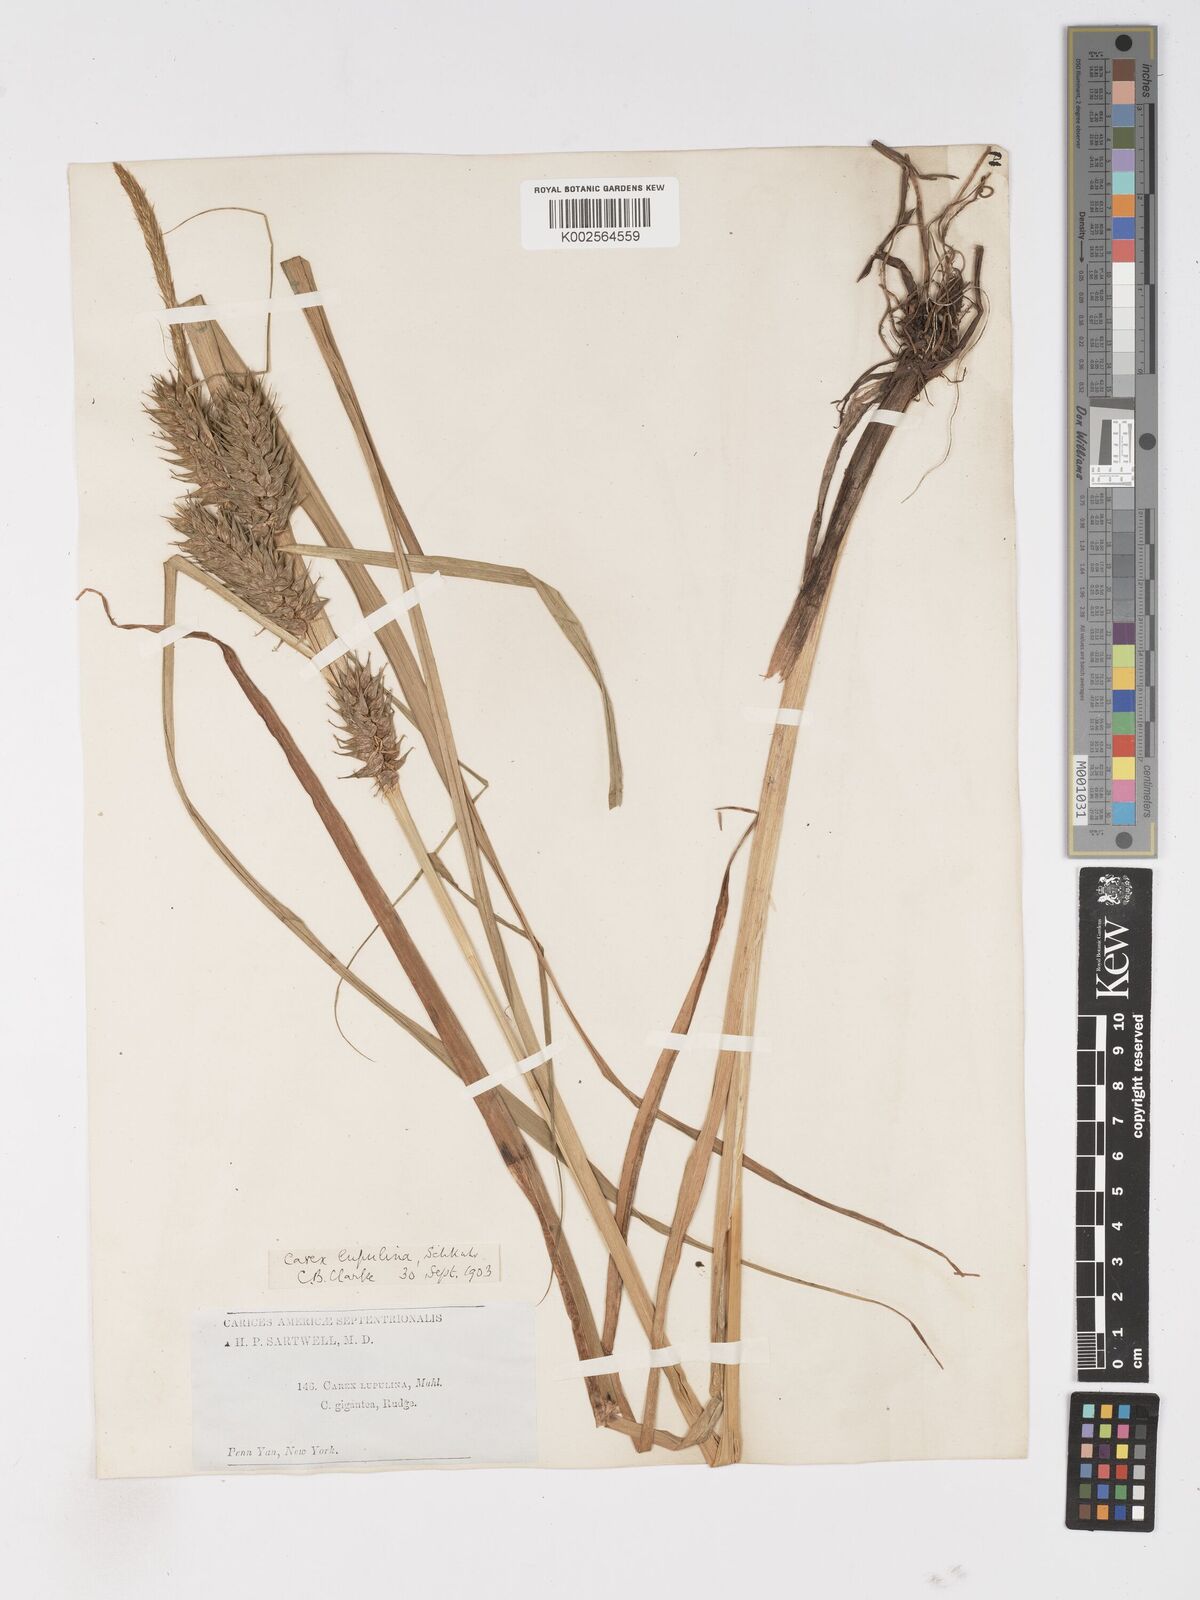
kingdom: Plantae
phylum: Tracheophyta
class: Liliopsida
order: Poales
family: Cyperaceae
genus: Carex
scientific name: Carex lupulina
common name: Hop sedge
